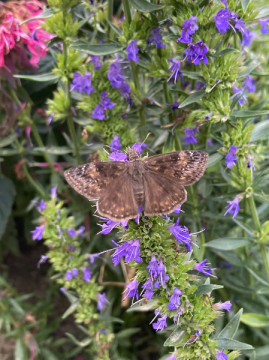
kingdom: Animalia
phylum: Arthropoda
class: Insecta
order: Lepidoptera
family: Hesperiidae
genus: Gesta
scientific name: Gesta
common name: Wild Indigo Duskywing
